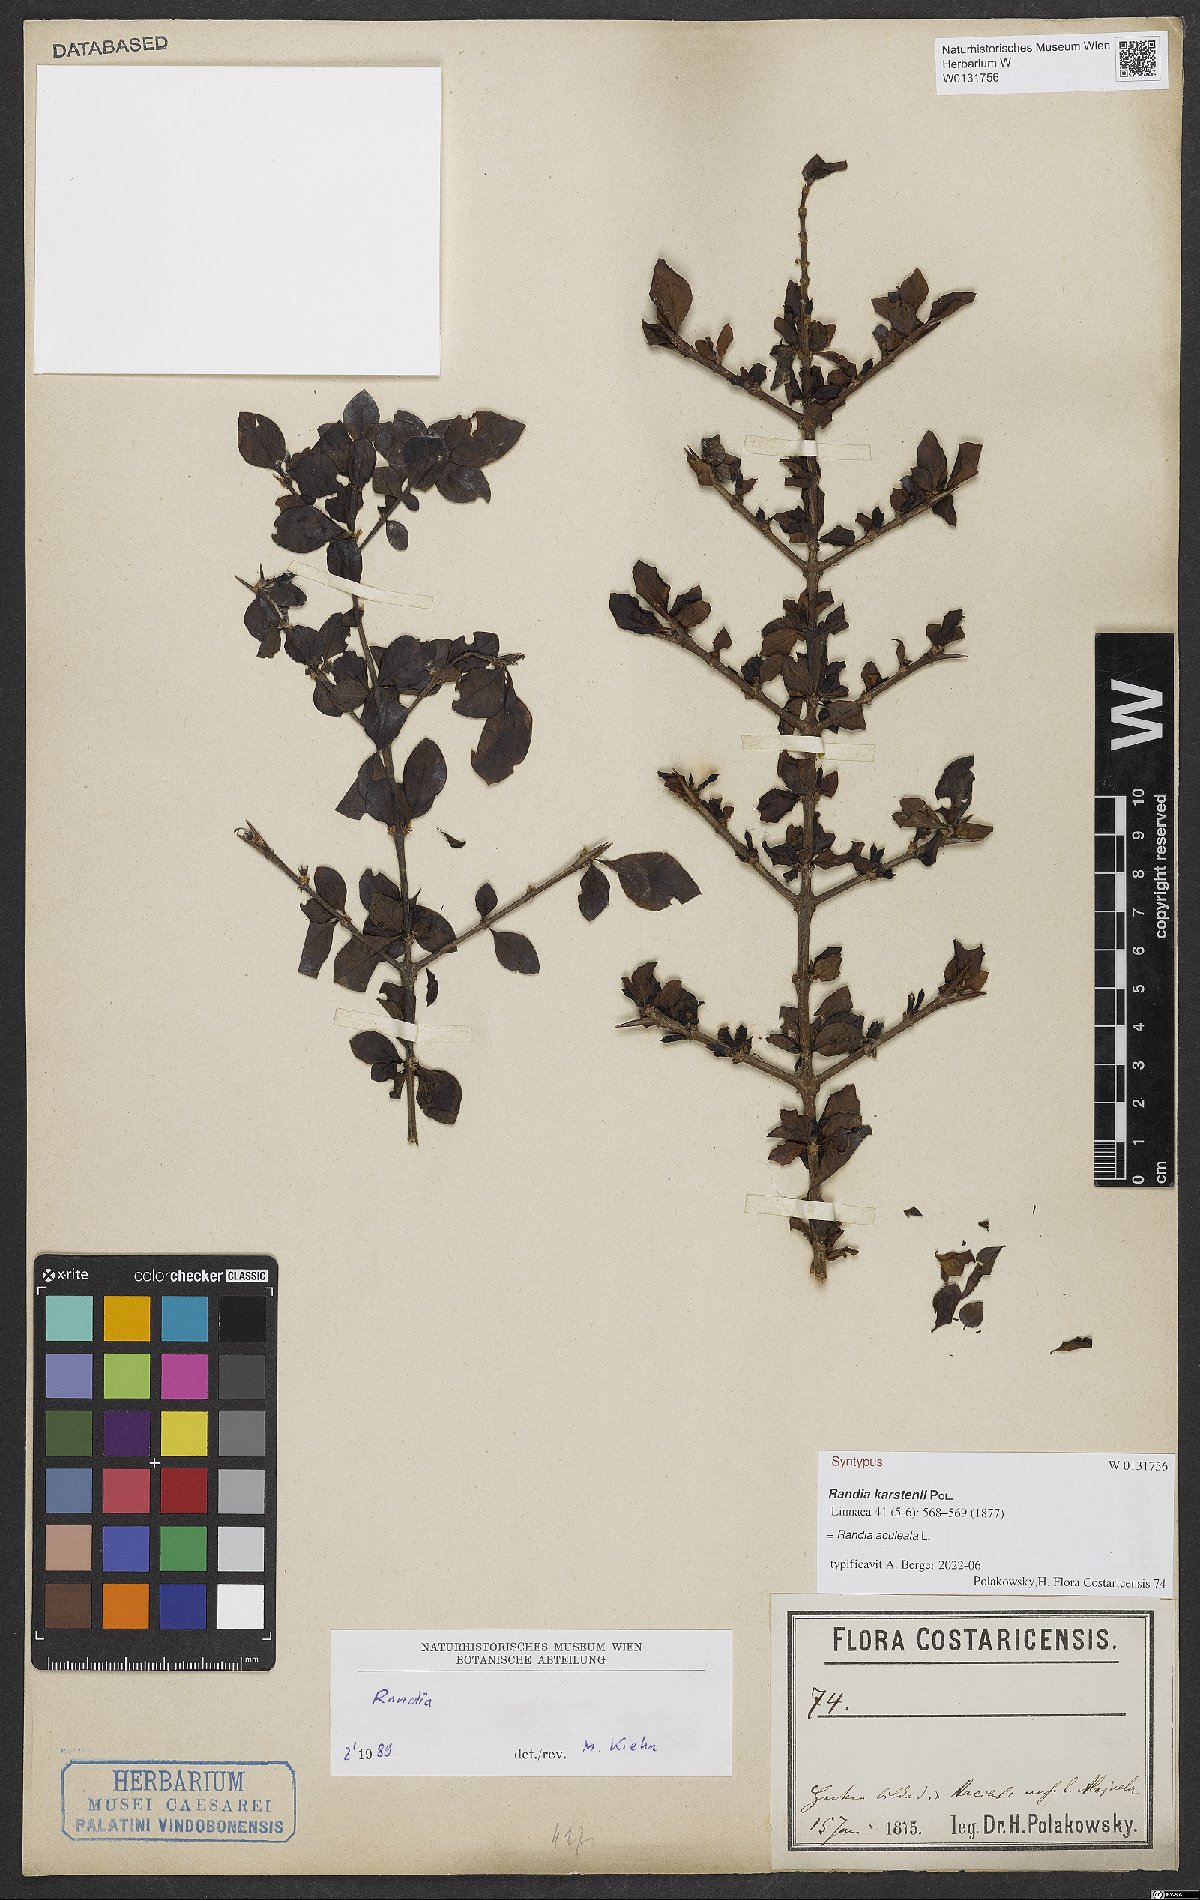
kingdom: Plantae
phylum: Tracheophyta
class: Magnoliopsida
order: Gentianales
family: Rubiaceae
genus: Randia
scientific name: Randia aculeata
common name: Inkberry
